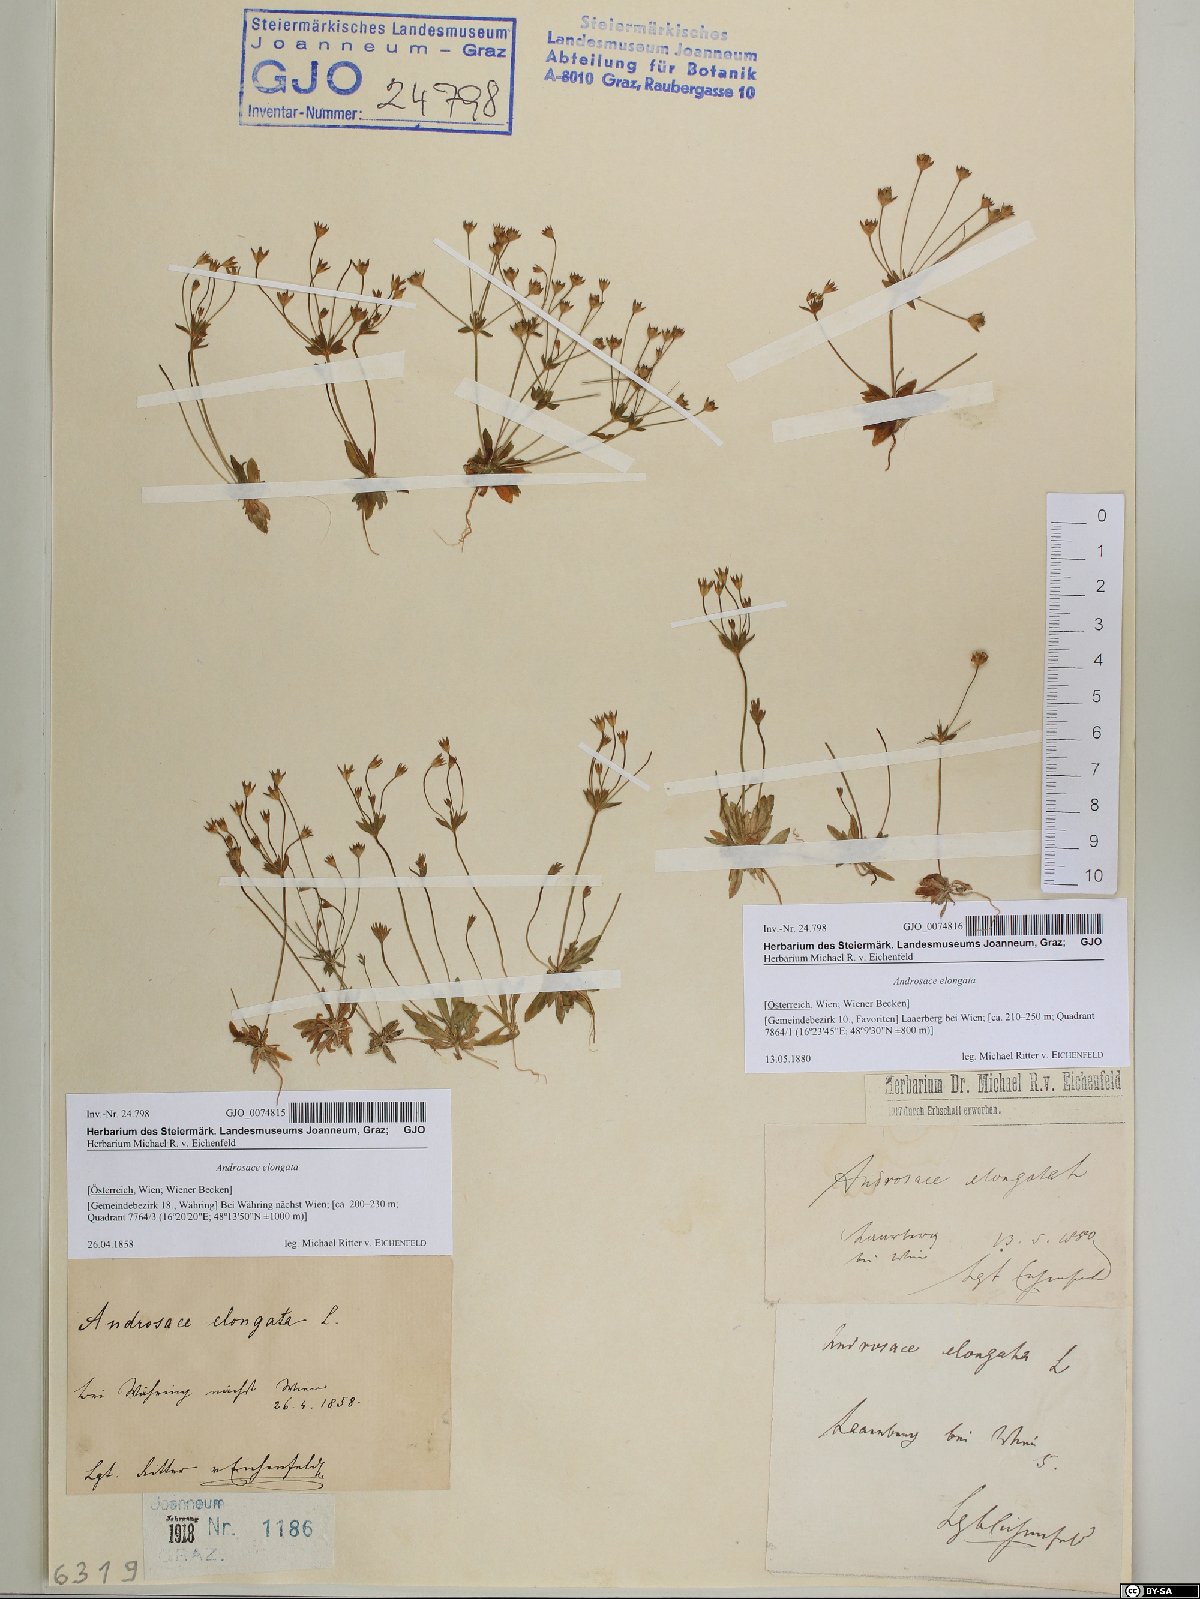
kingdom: Plantae
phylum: Tracheophyta
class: Magnoliopsida
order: Ericales
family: Primulaceae
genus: Androsace
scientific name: Androsace elongata
